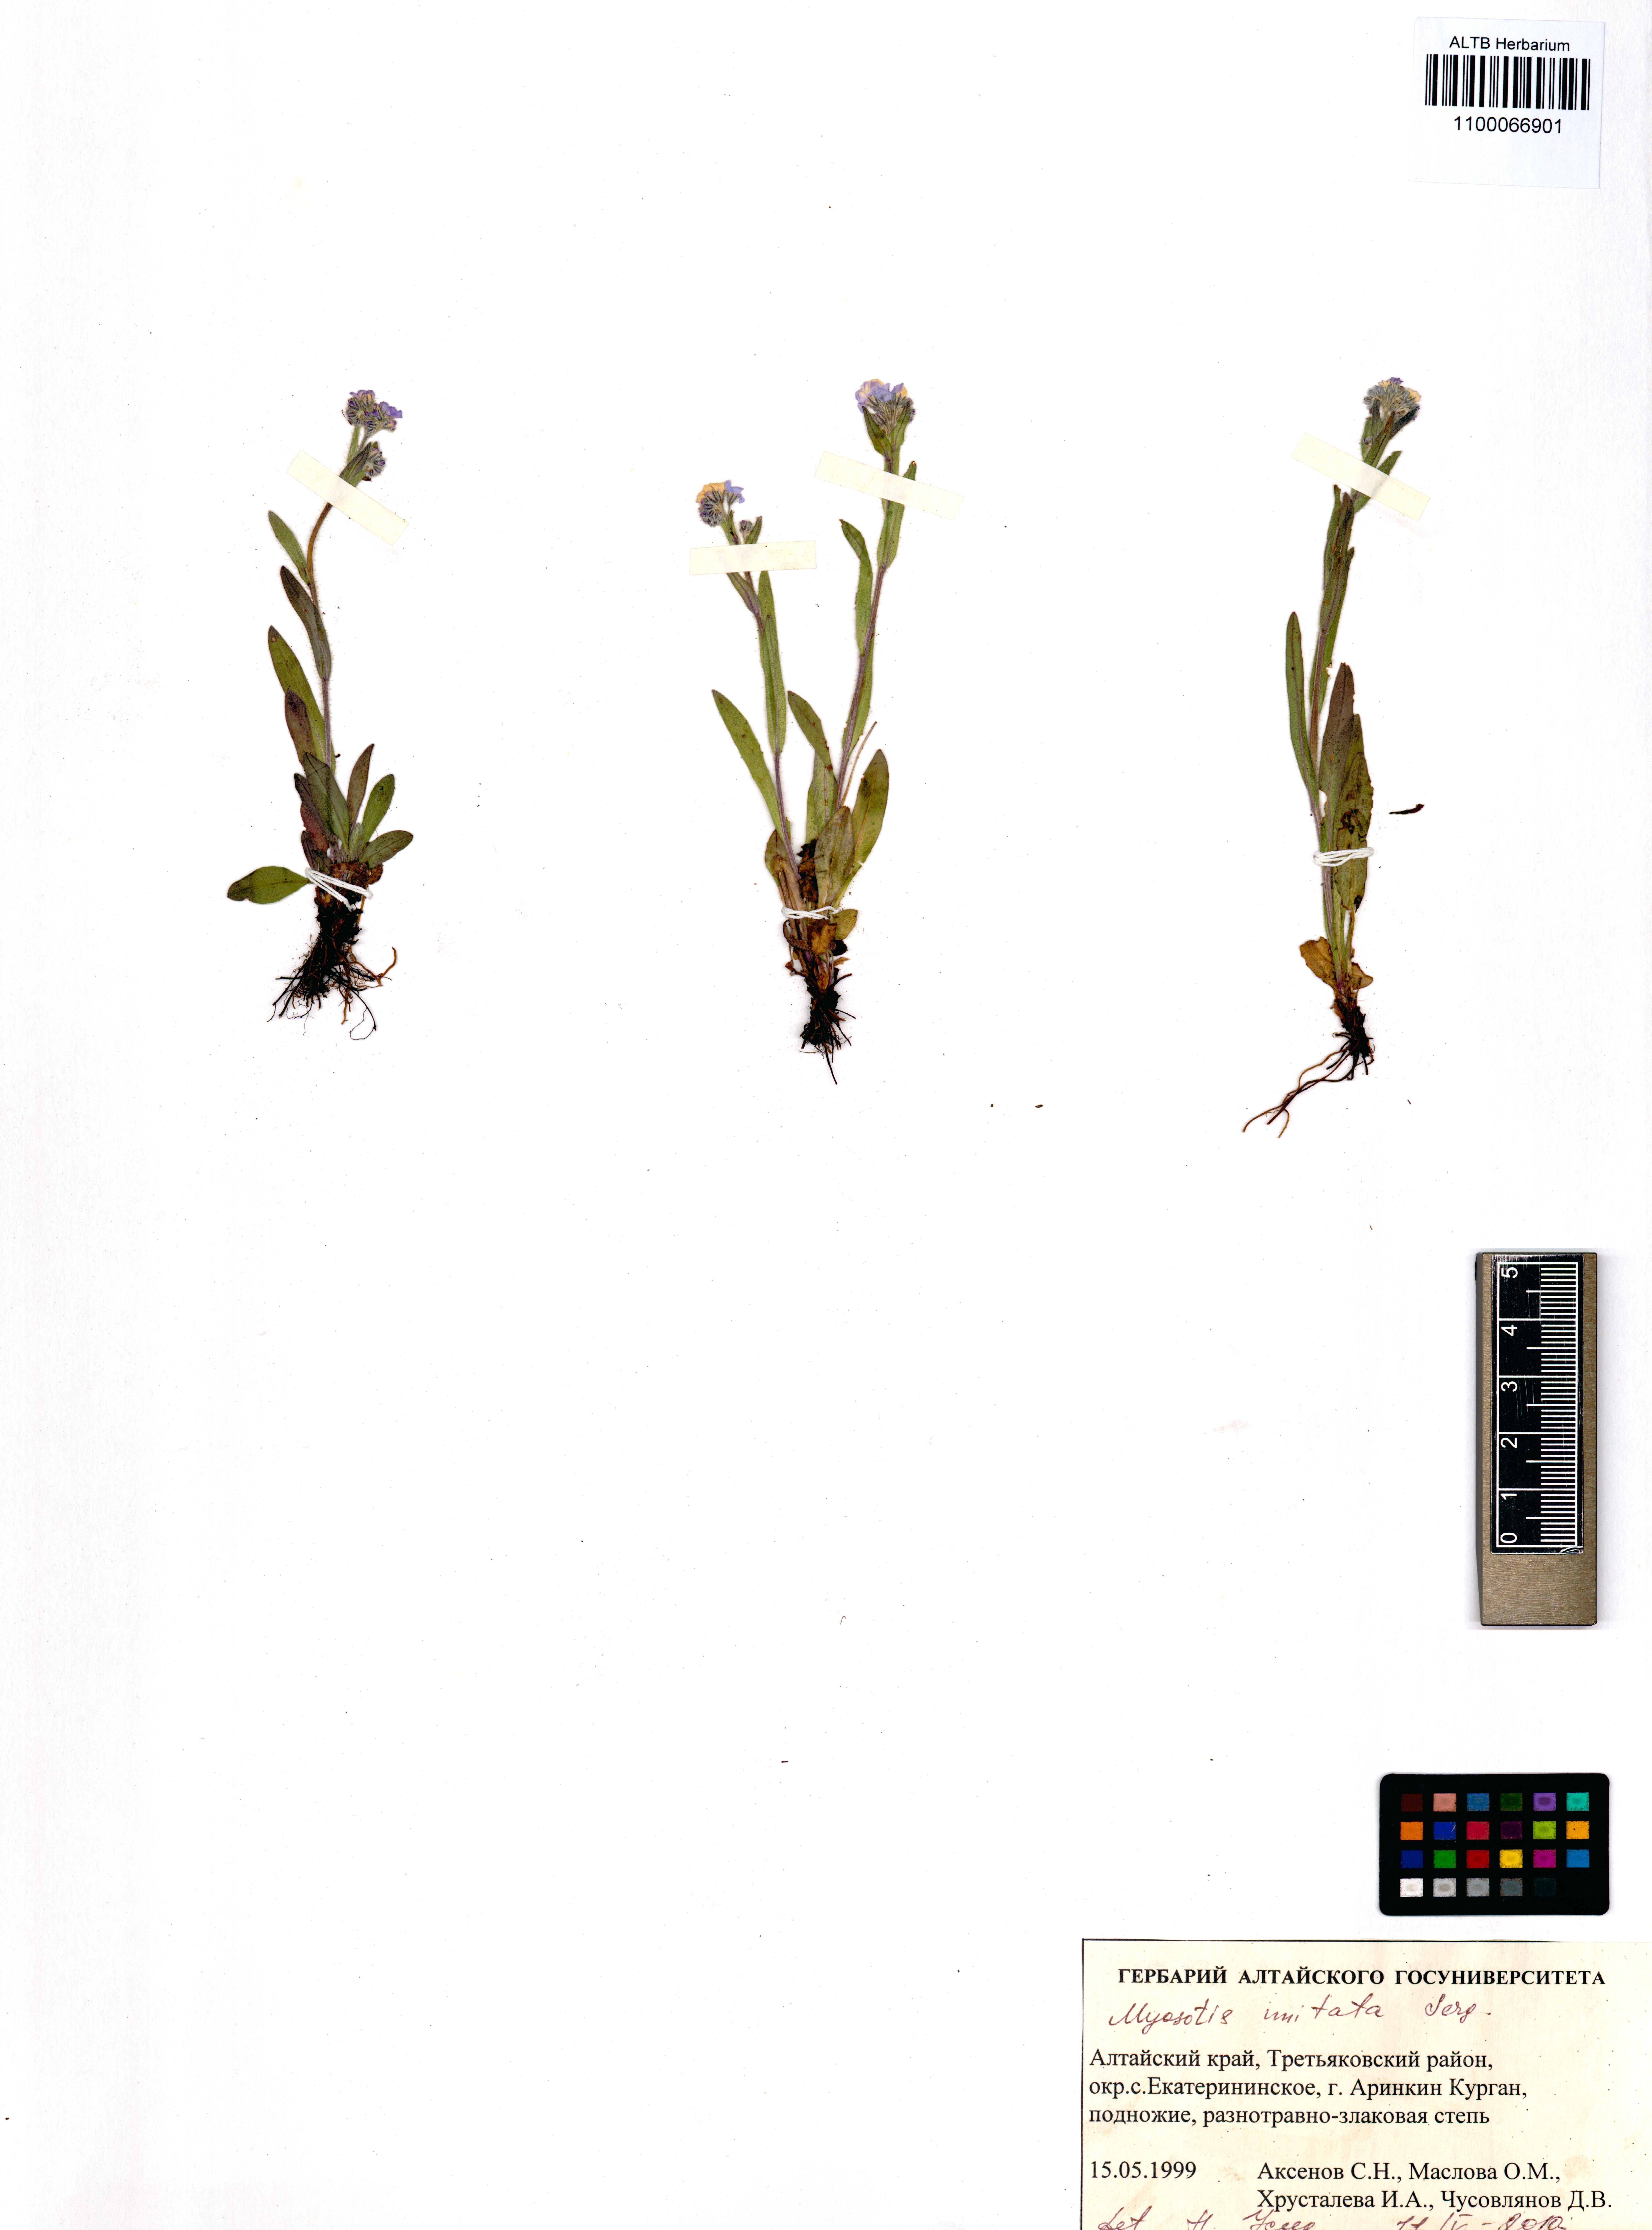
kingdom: Plantae
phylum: Tracheophyta
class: Magnoliopsida
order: Boraginales
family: Boraginaceae
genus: Myosotis
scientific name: Myosotis imitata
